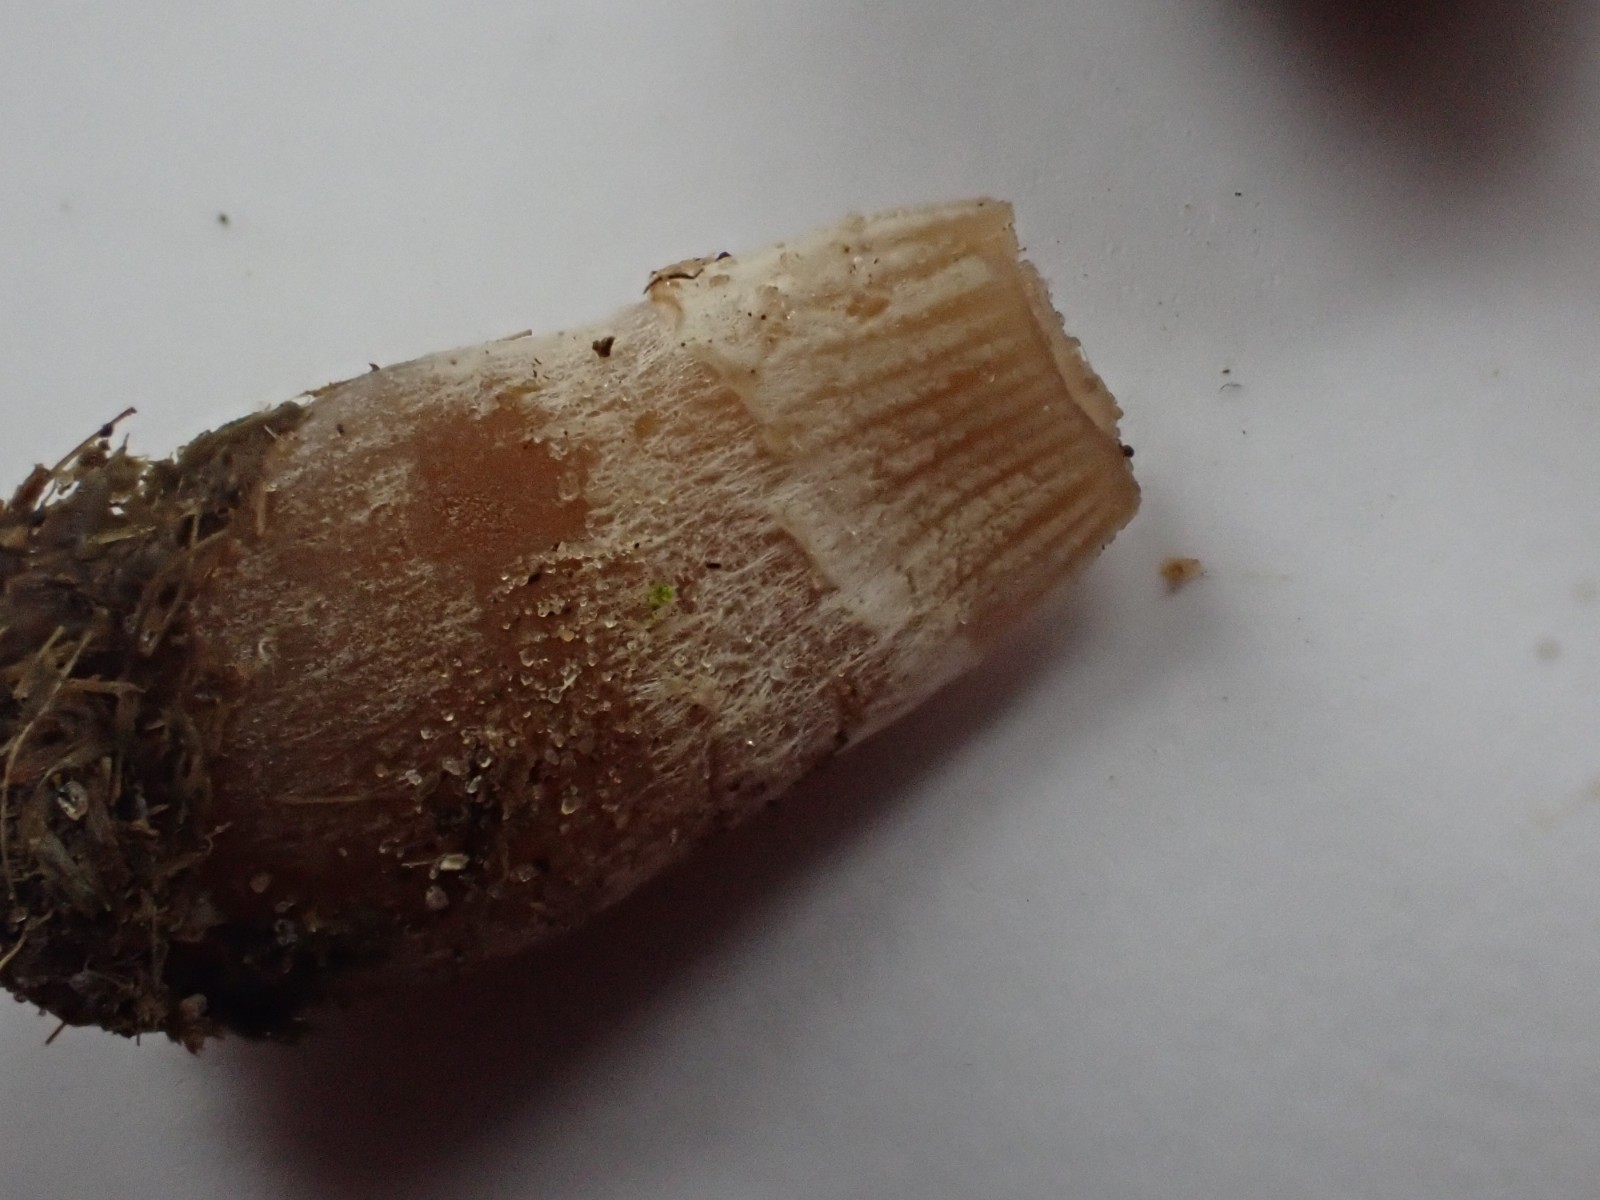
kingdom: Fungi
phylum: Basidiomycota
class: Agaricomycetes
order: Agaricales
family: Bolbitiaceae
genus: Panaeolus
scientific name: Panaeolus semiovatus
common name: ring-glanshat
